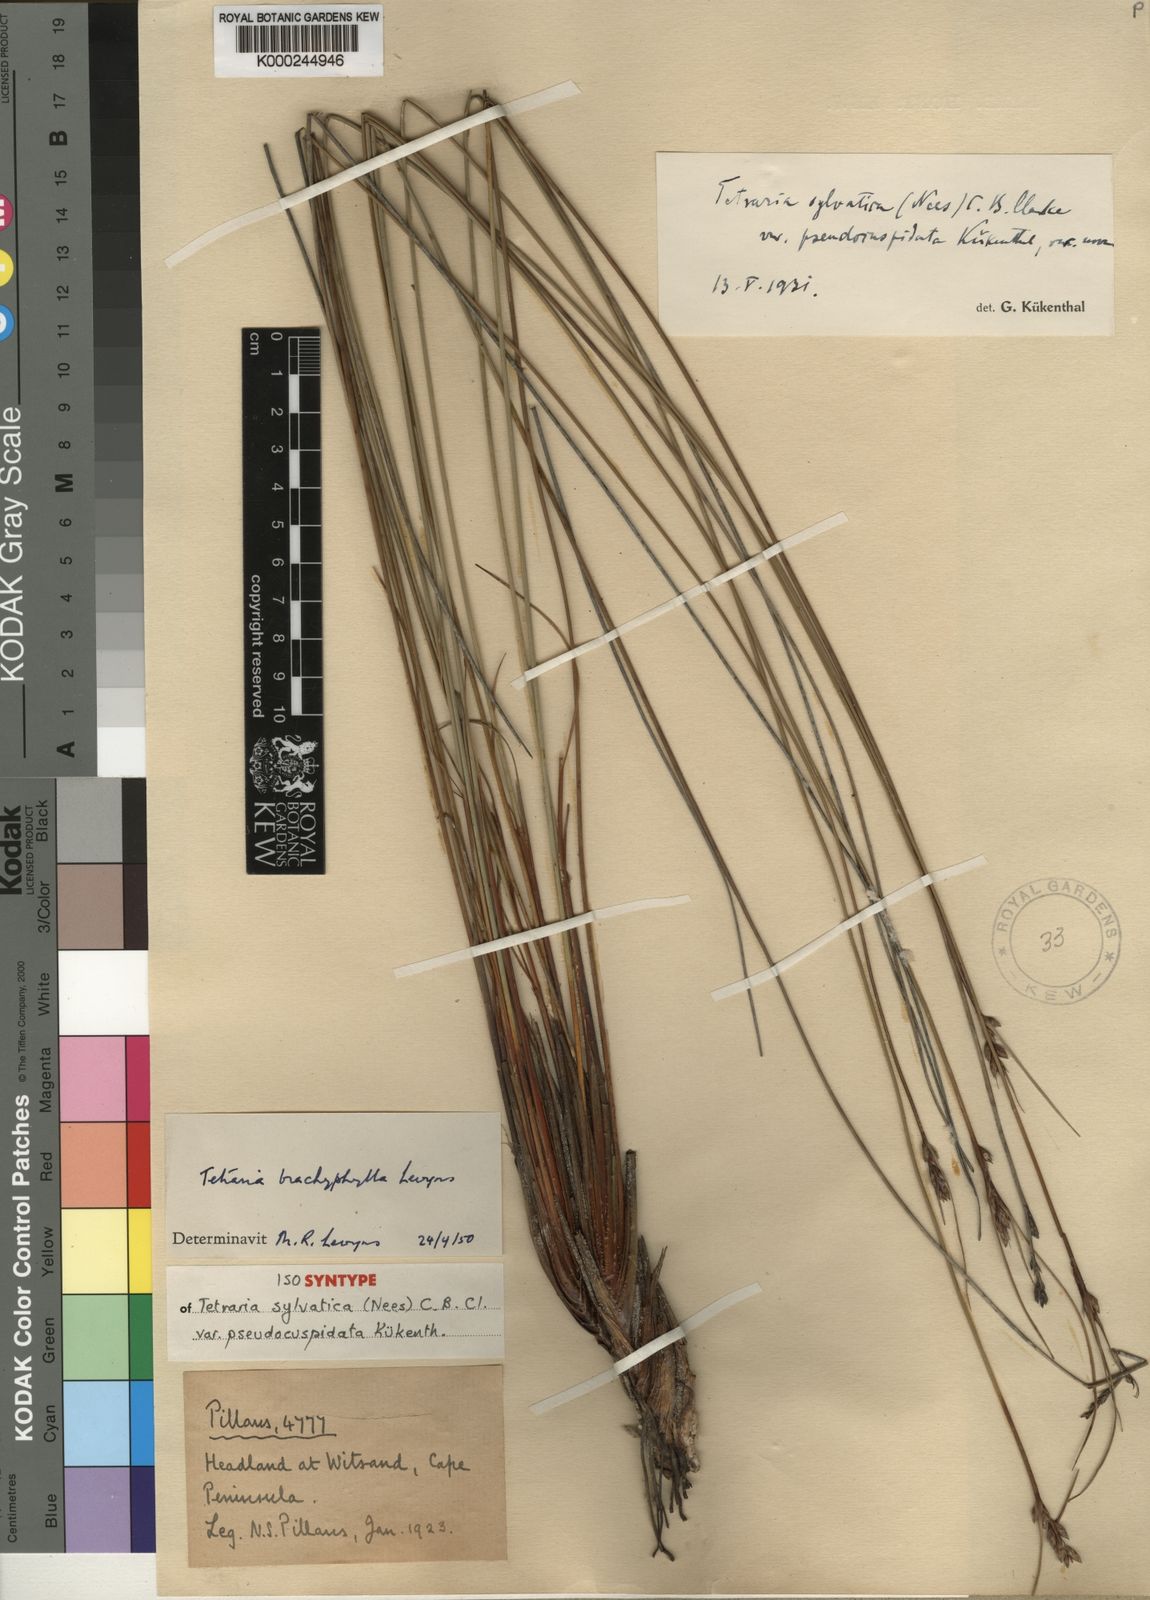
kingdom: Plantae
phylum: Tracheophyta
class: Liliopsida
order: Poales
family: Cyperaceae
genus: Schoenus
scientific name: Schoenus arenicola
